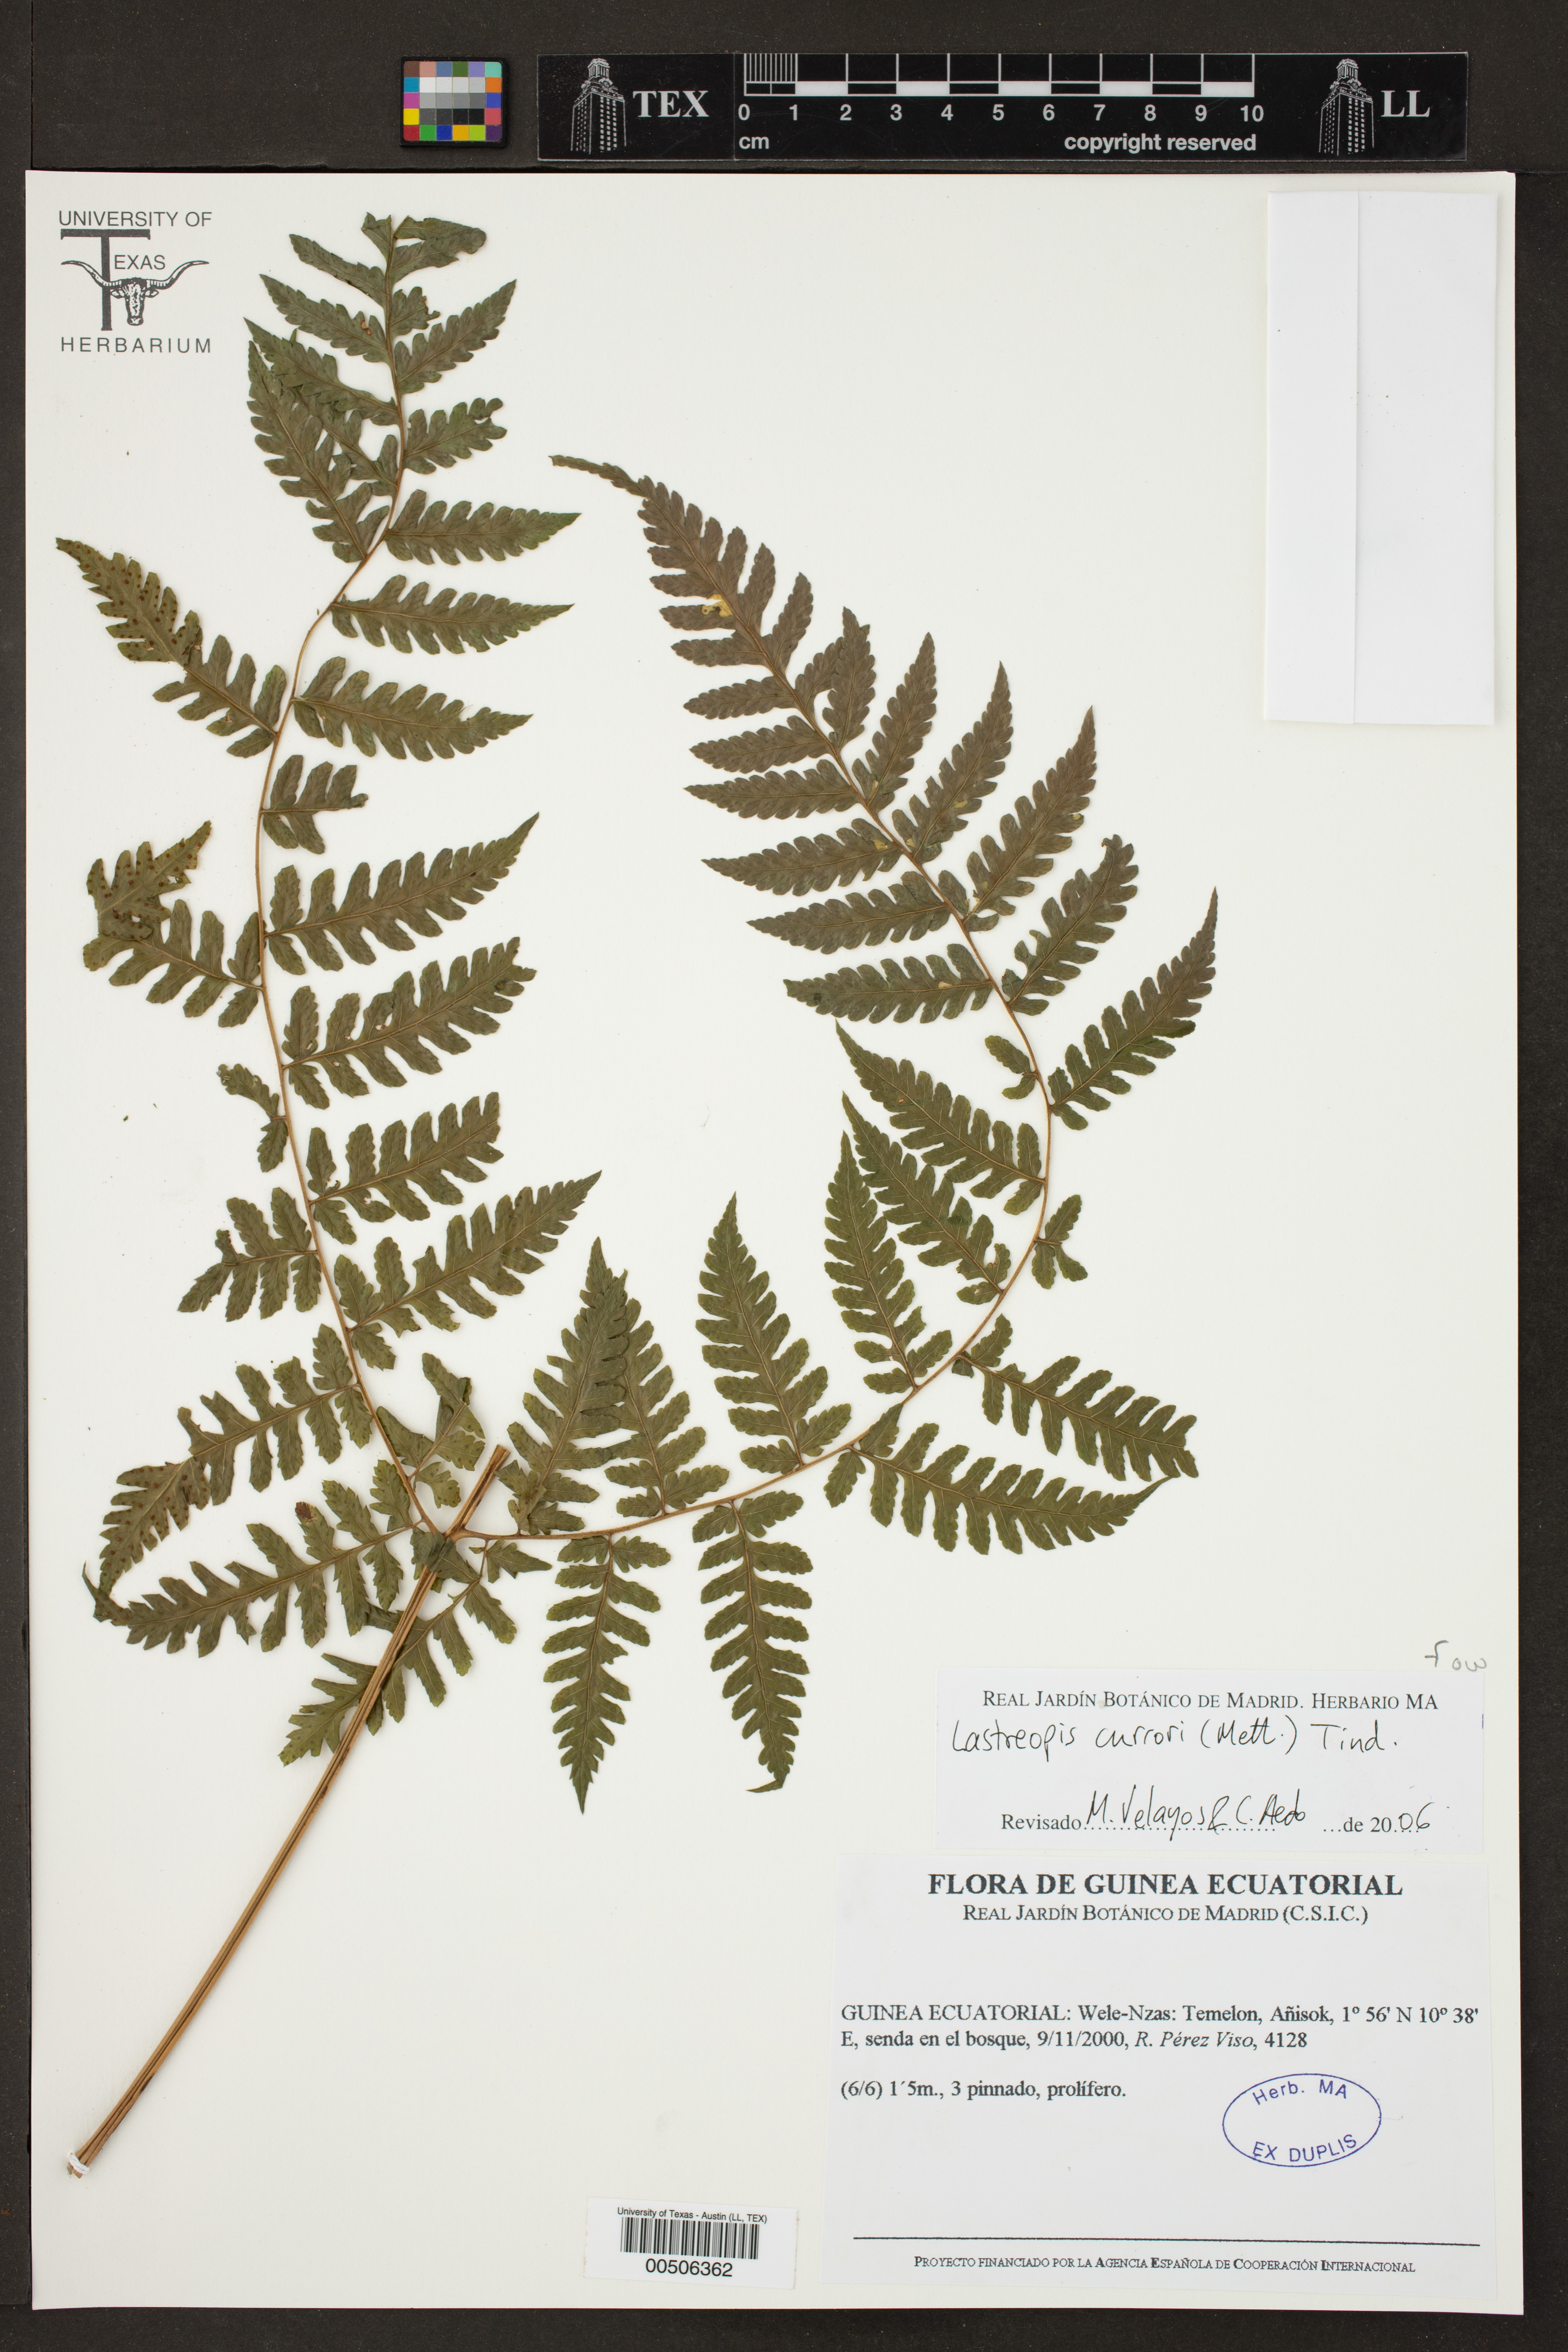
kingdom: Plantae
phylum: Tracheophyta
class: Polypodiopsida
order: Polypodiales
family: Dryopteridaceae
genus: Lastreopsis
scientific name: Lastreopsis
